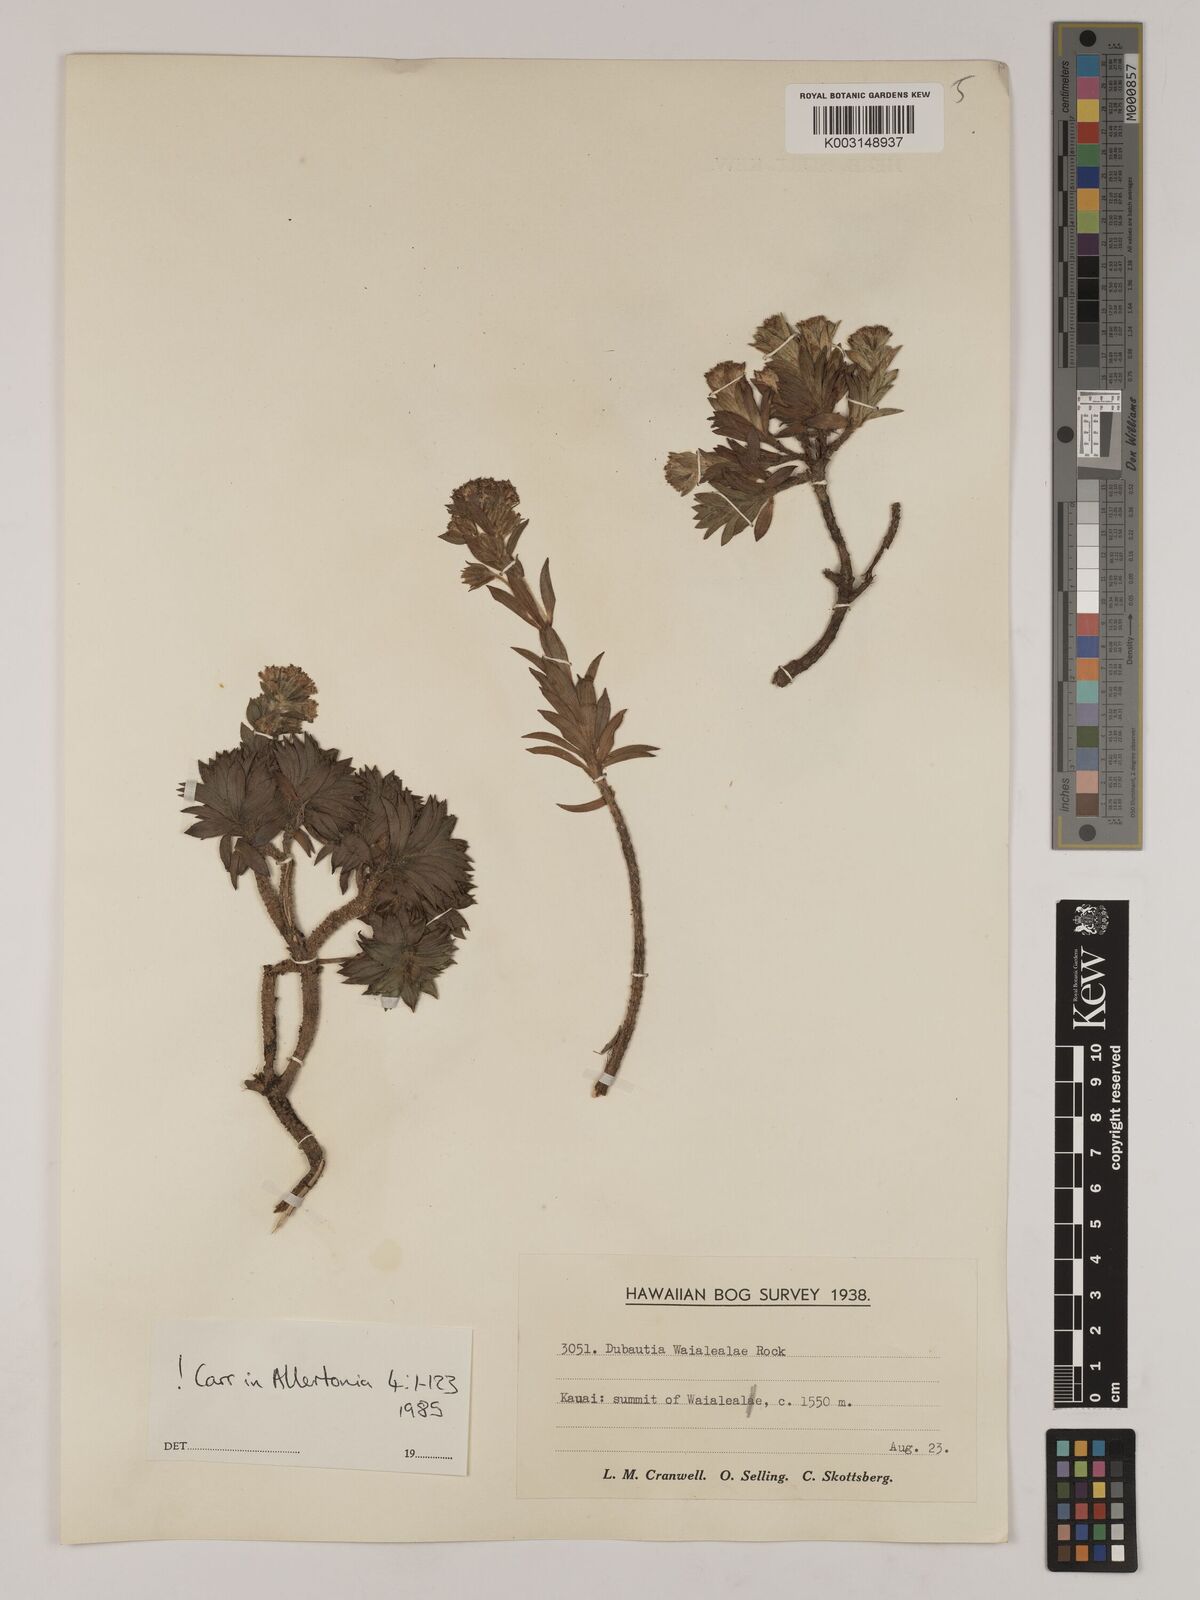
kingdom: Plantae
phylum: Tracheophyta
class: Magnoliopsida
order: Asterales
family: Asteraceae
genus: Dubautia
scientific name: Dubautia waialealae
